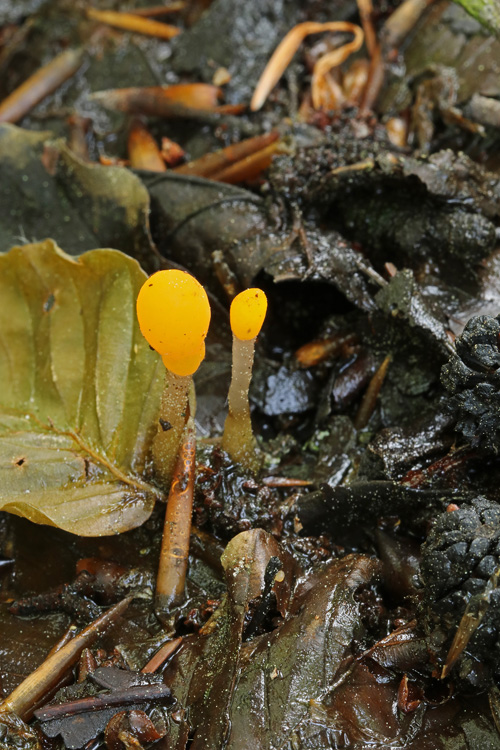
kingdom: Fungi
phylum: Ascomycota
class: Leotiomycetes
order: Helotiales
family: Cenangiaceae
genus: Mitrula
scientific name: Mitrula paludosa
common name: gul nøkketunge
